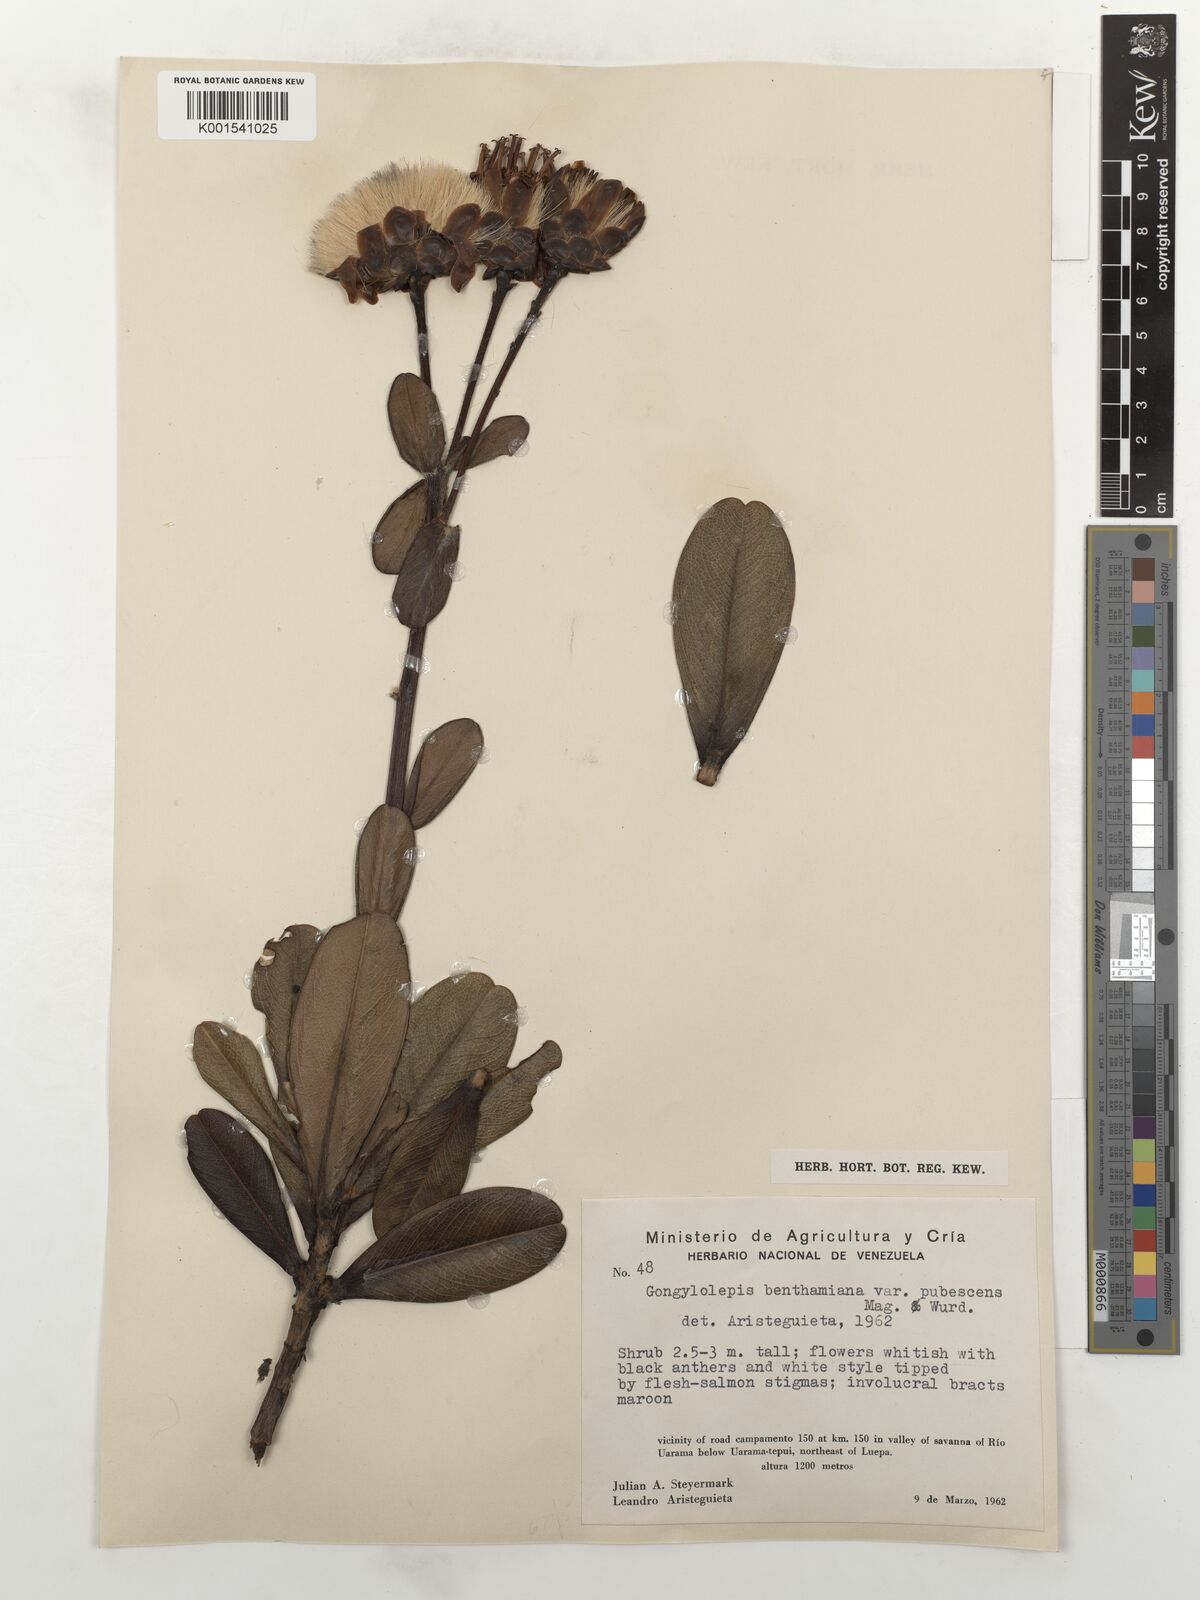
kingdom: Plantae
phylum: Tracheophyta
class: Magnoliopsida
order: Asterales
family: Asteraceae
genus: Gongylolepis
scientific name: Gongylolepis benthamiana
